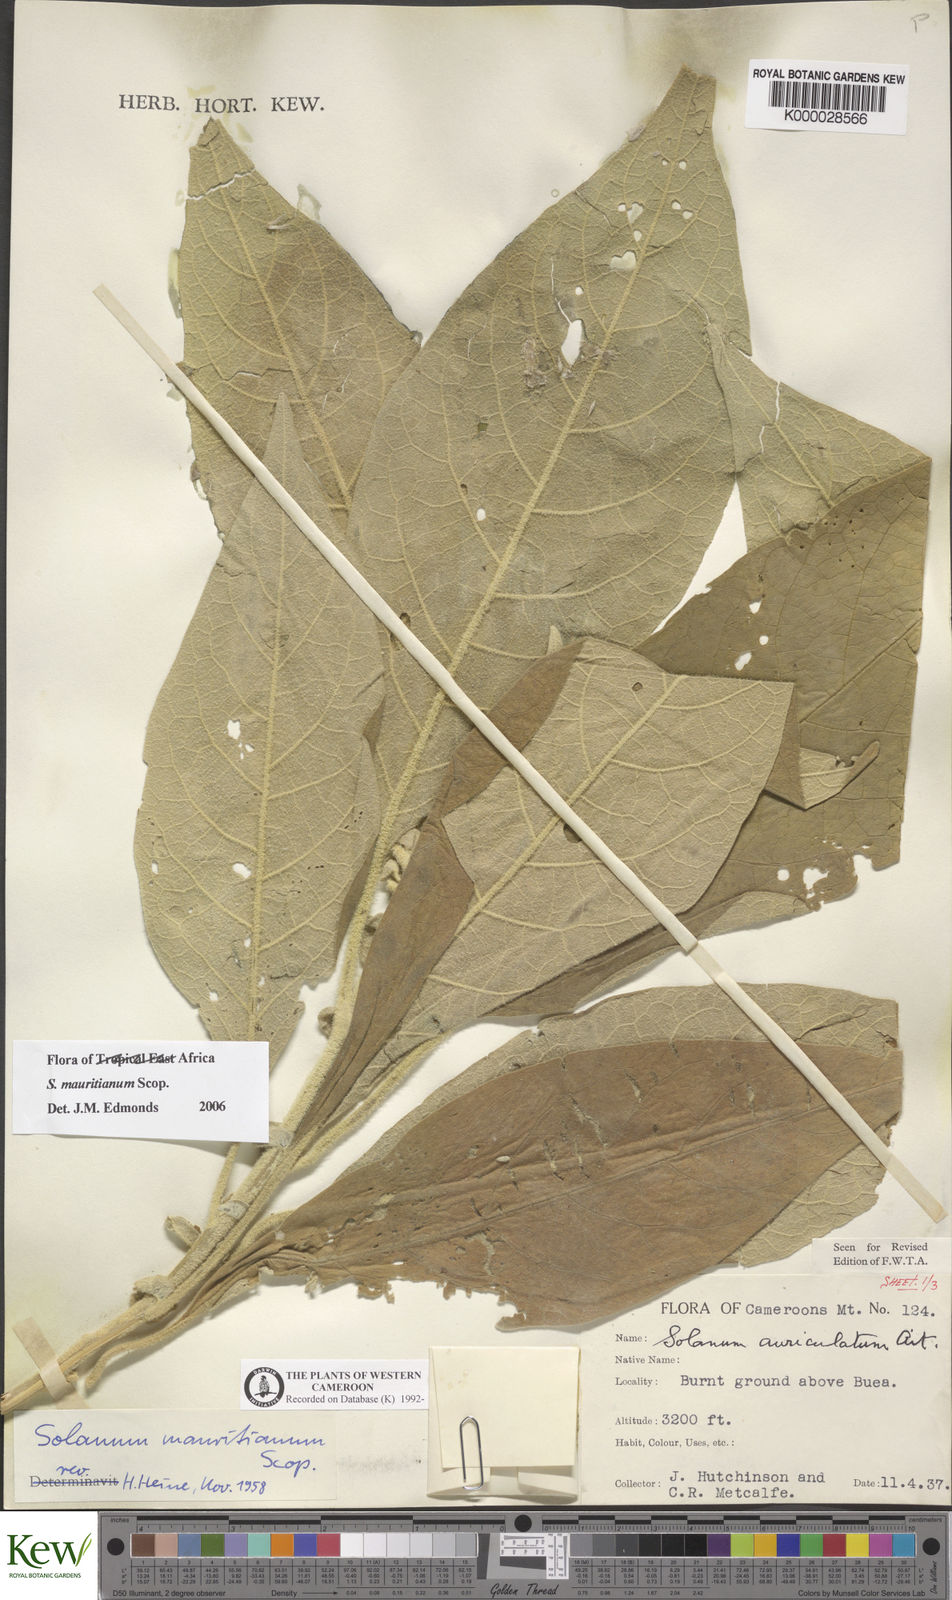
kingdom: Plantae
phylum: Tracheophyta
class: Magnoliopsida
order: Solanales
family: Solanaceae
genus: Solanum
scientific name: Solanum mauritianum
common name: Earleaf nightshade
